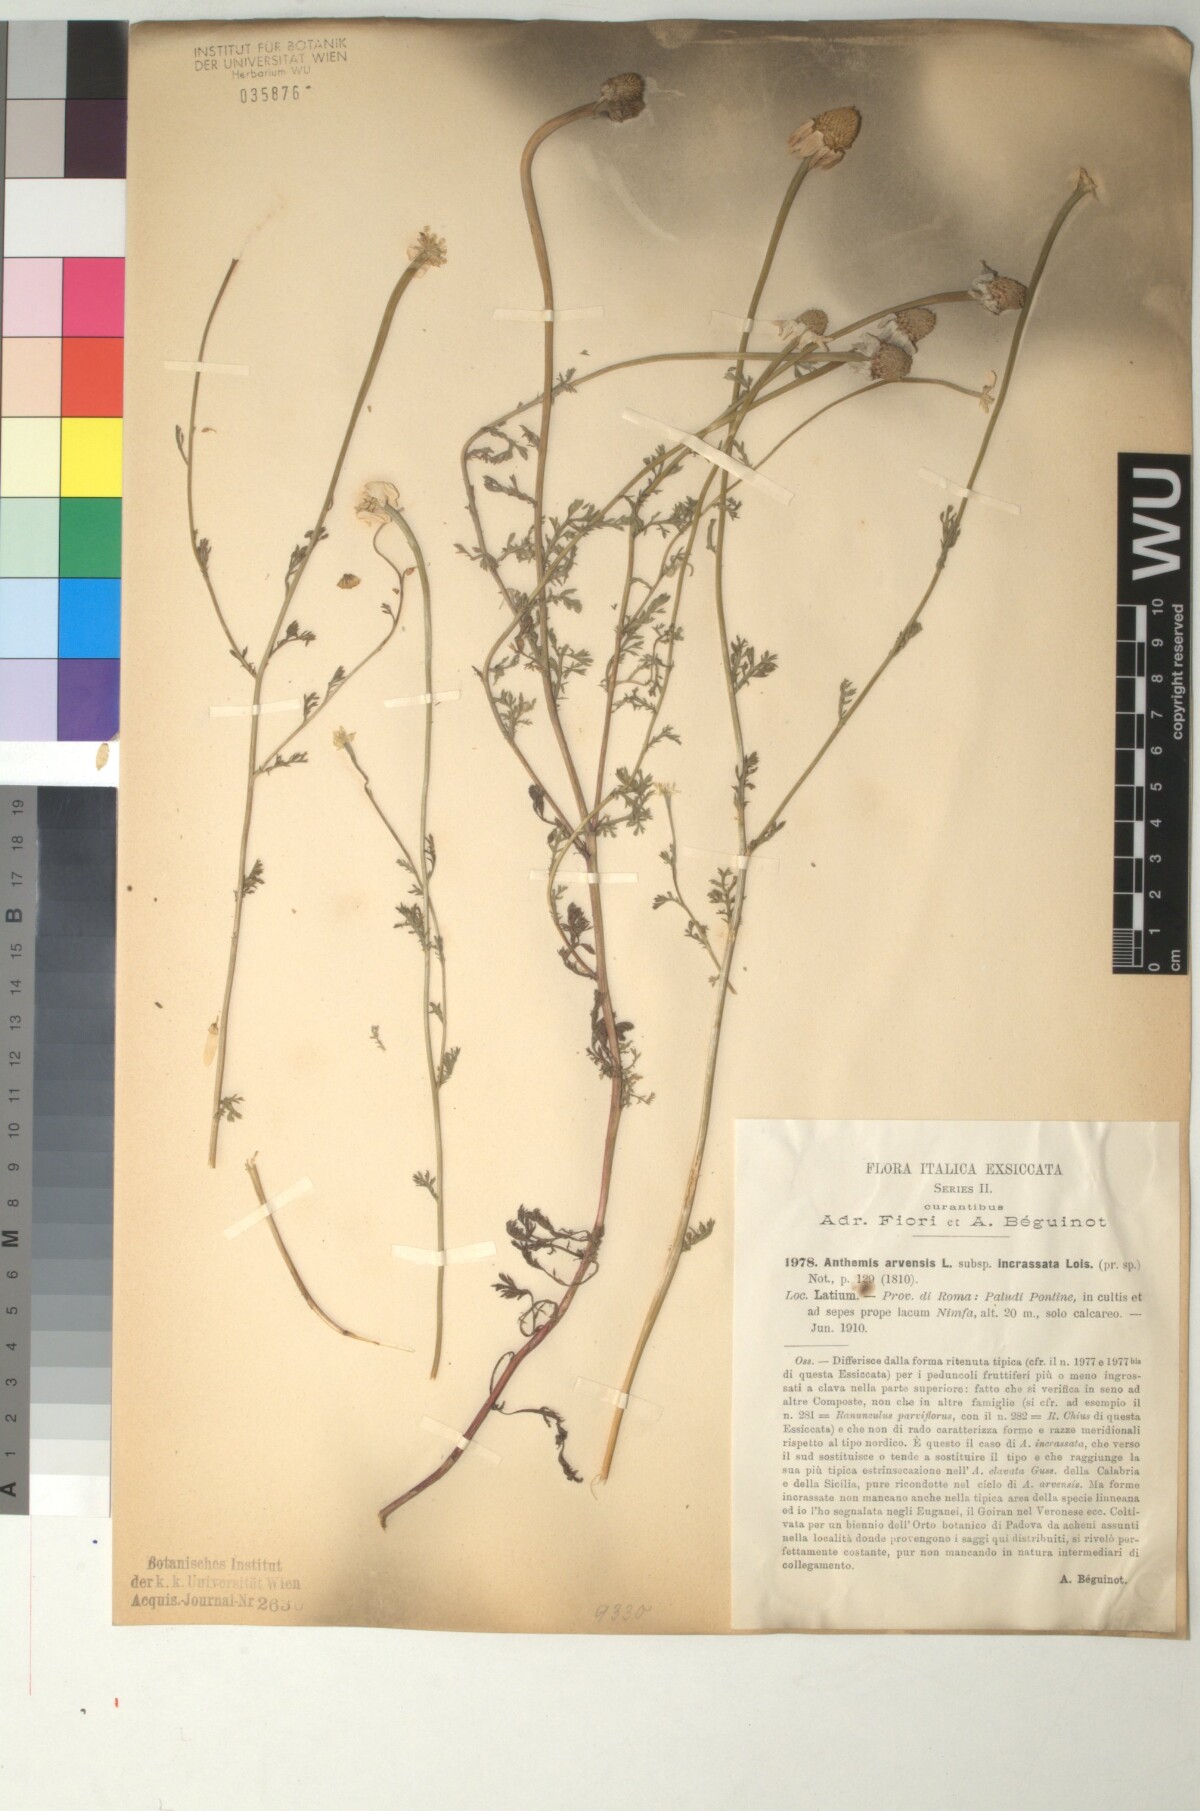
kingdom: Plantae
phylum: Tracheophyta
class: Magnoliopsida
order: Asterales
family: Asteraceae
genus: Anthemis
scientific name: Anthemis arvensis
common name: Corn chamomile
